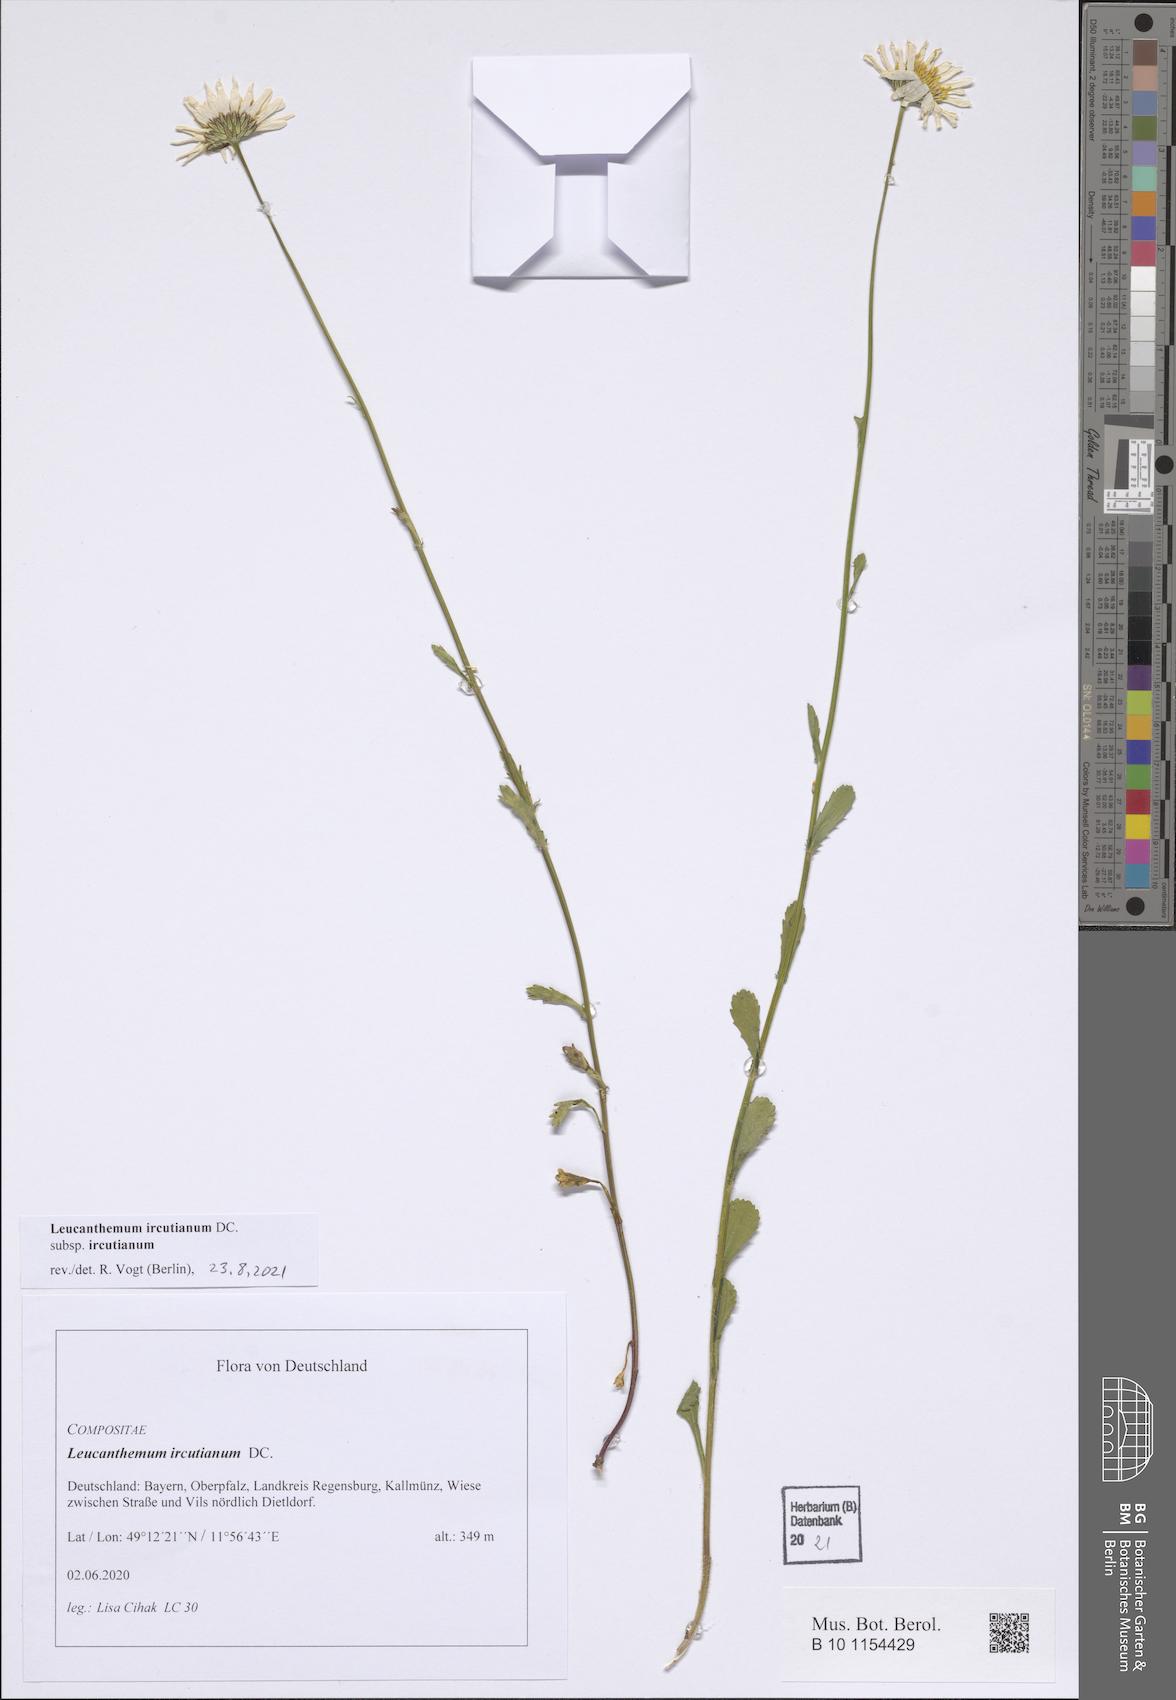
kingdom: Plantae
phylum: Tracheophyta
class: Magnoliopsida
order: Asterales
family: Asteraceae
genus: Leucanthemum
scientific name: Leucanthemum ircutianum
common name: Daisy
